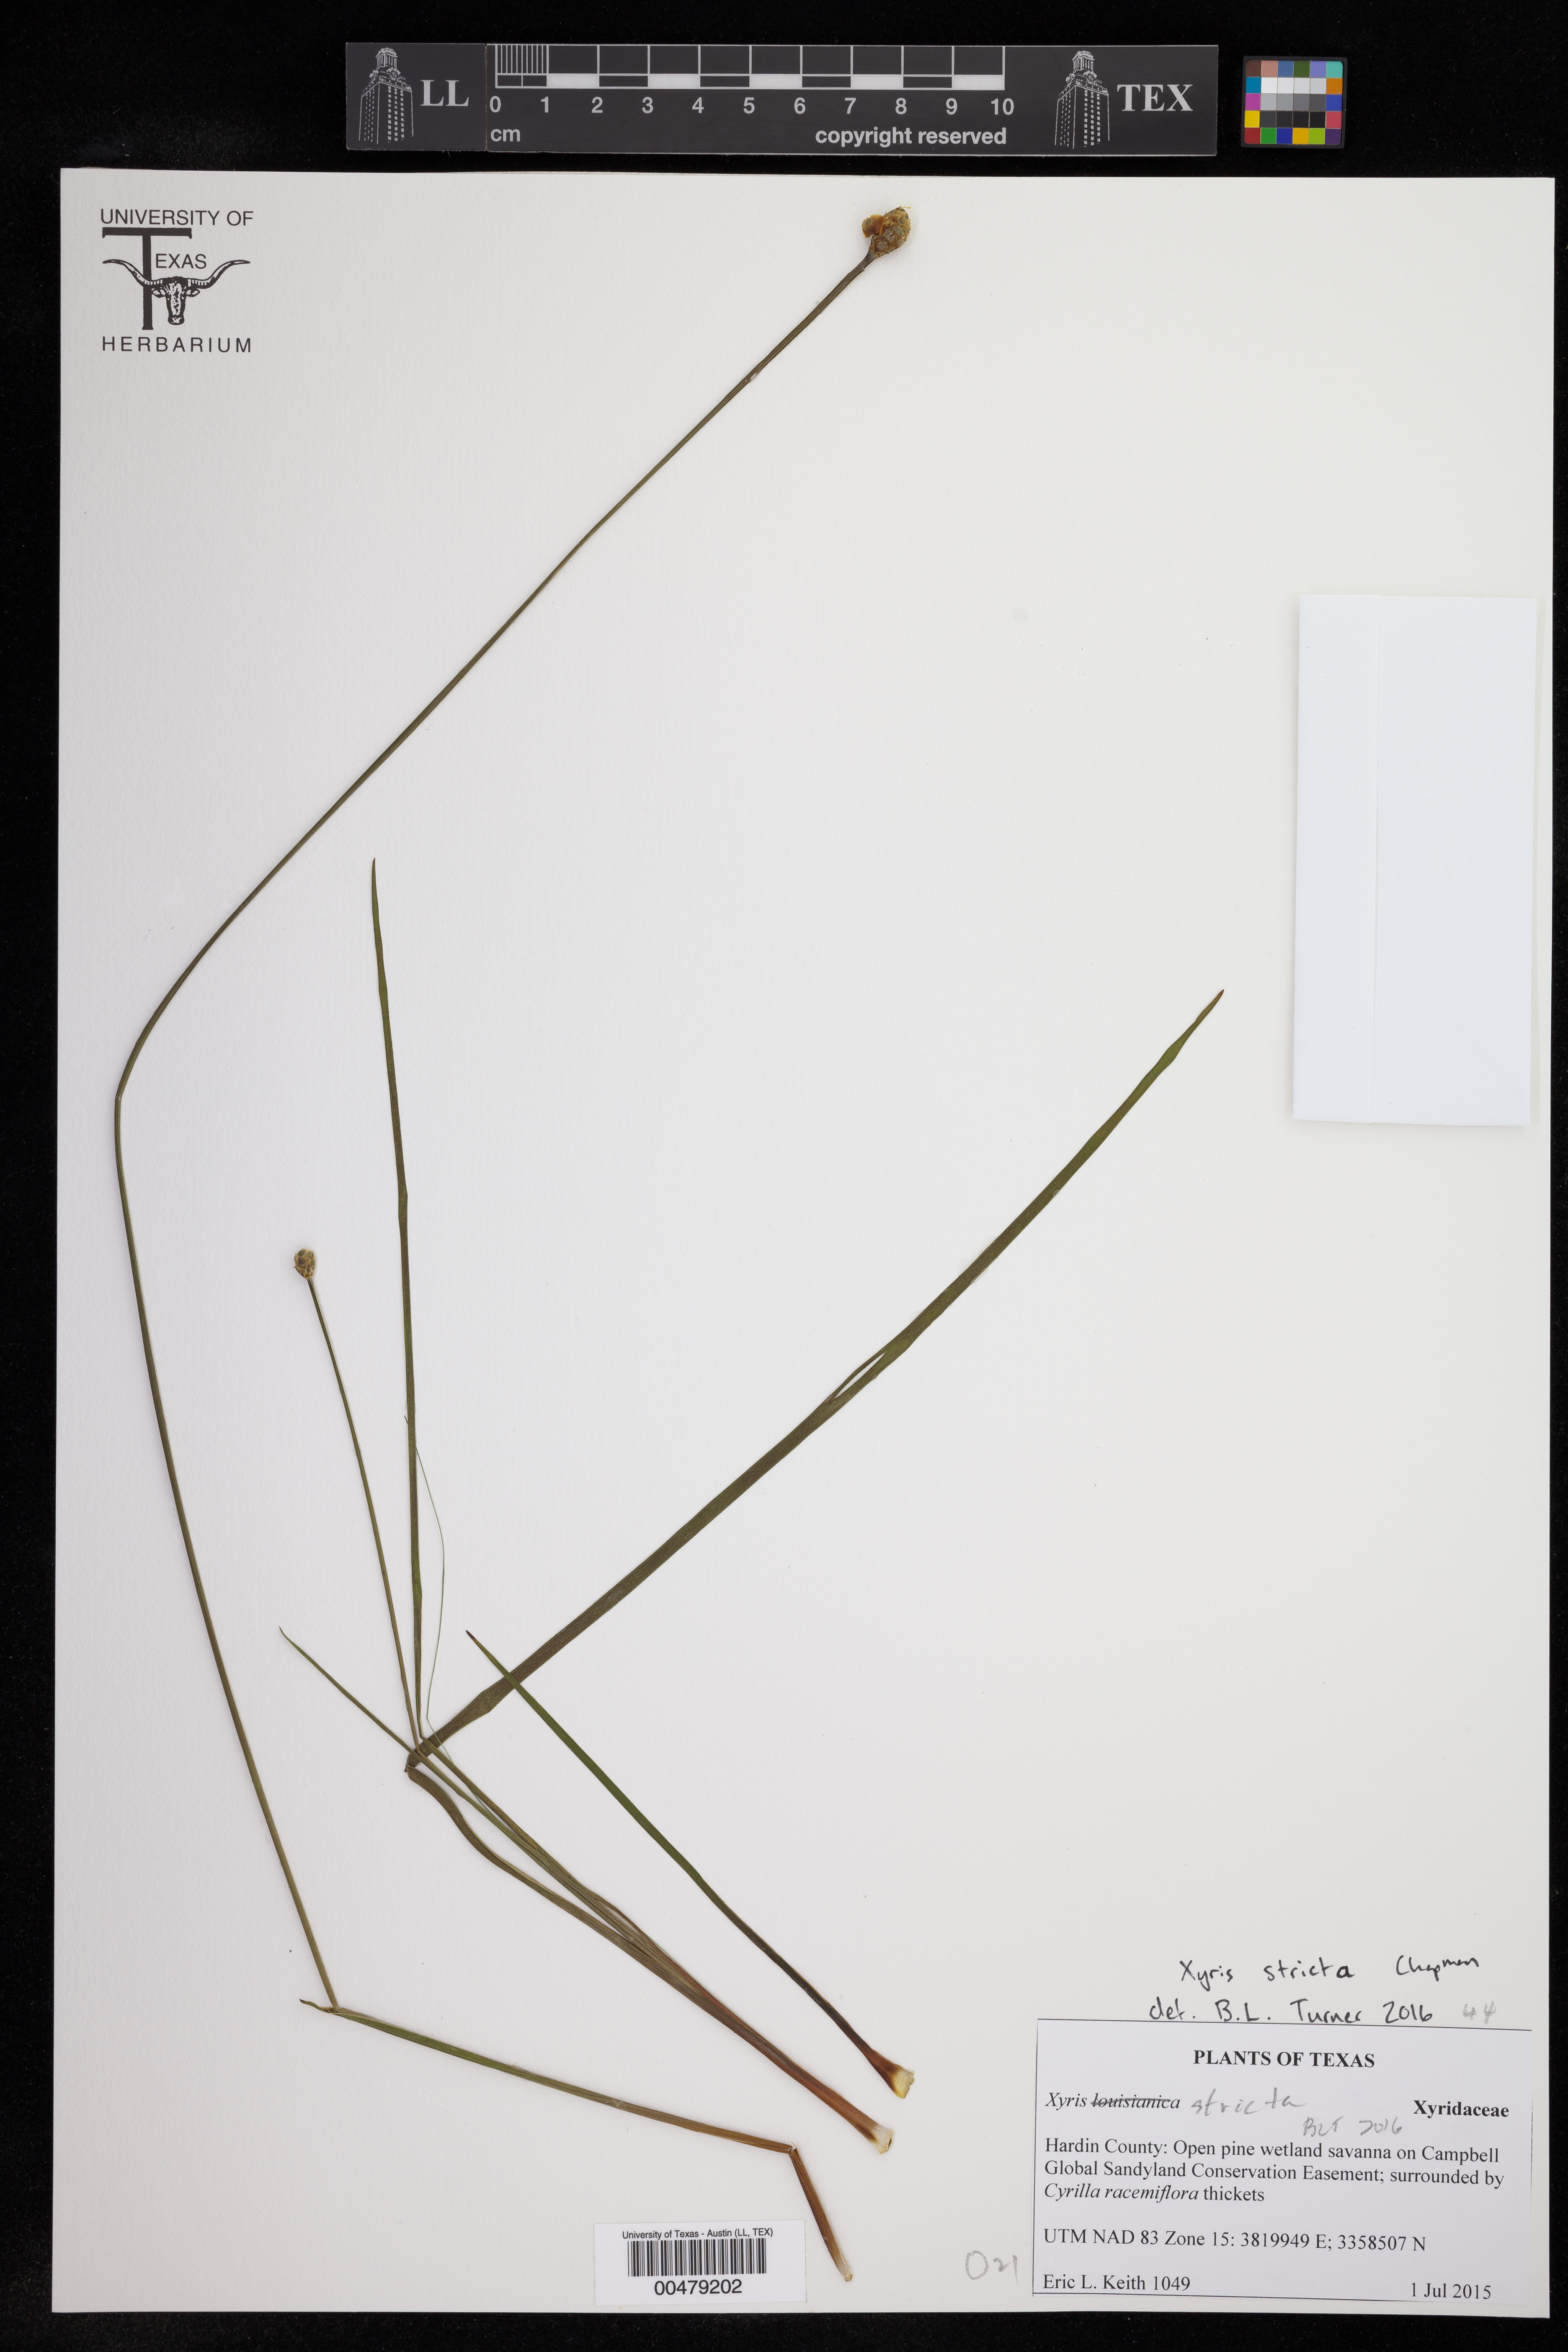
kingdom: Plantae
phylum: Tracheophyta
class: Liliopsida
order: Poales
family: Xyridaceae
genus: Xyris
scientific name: Xyris stricta
